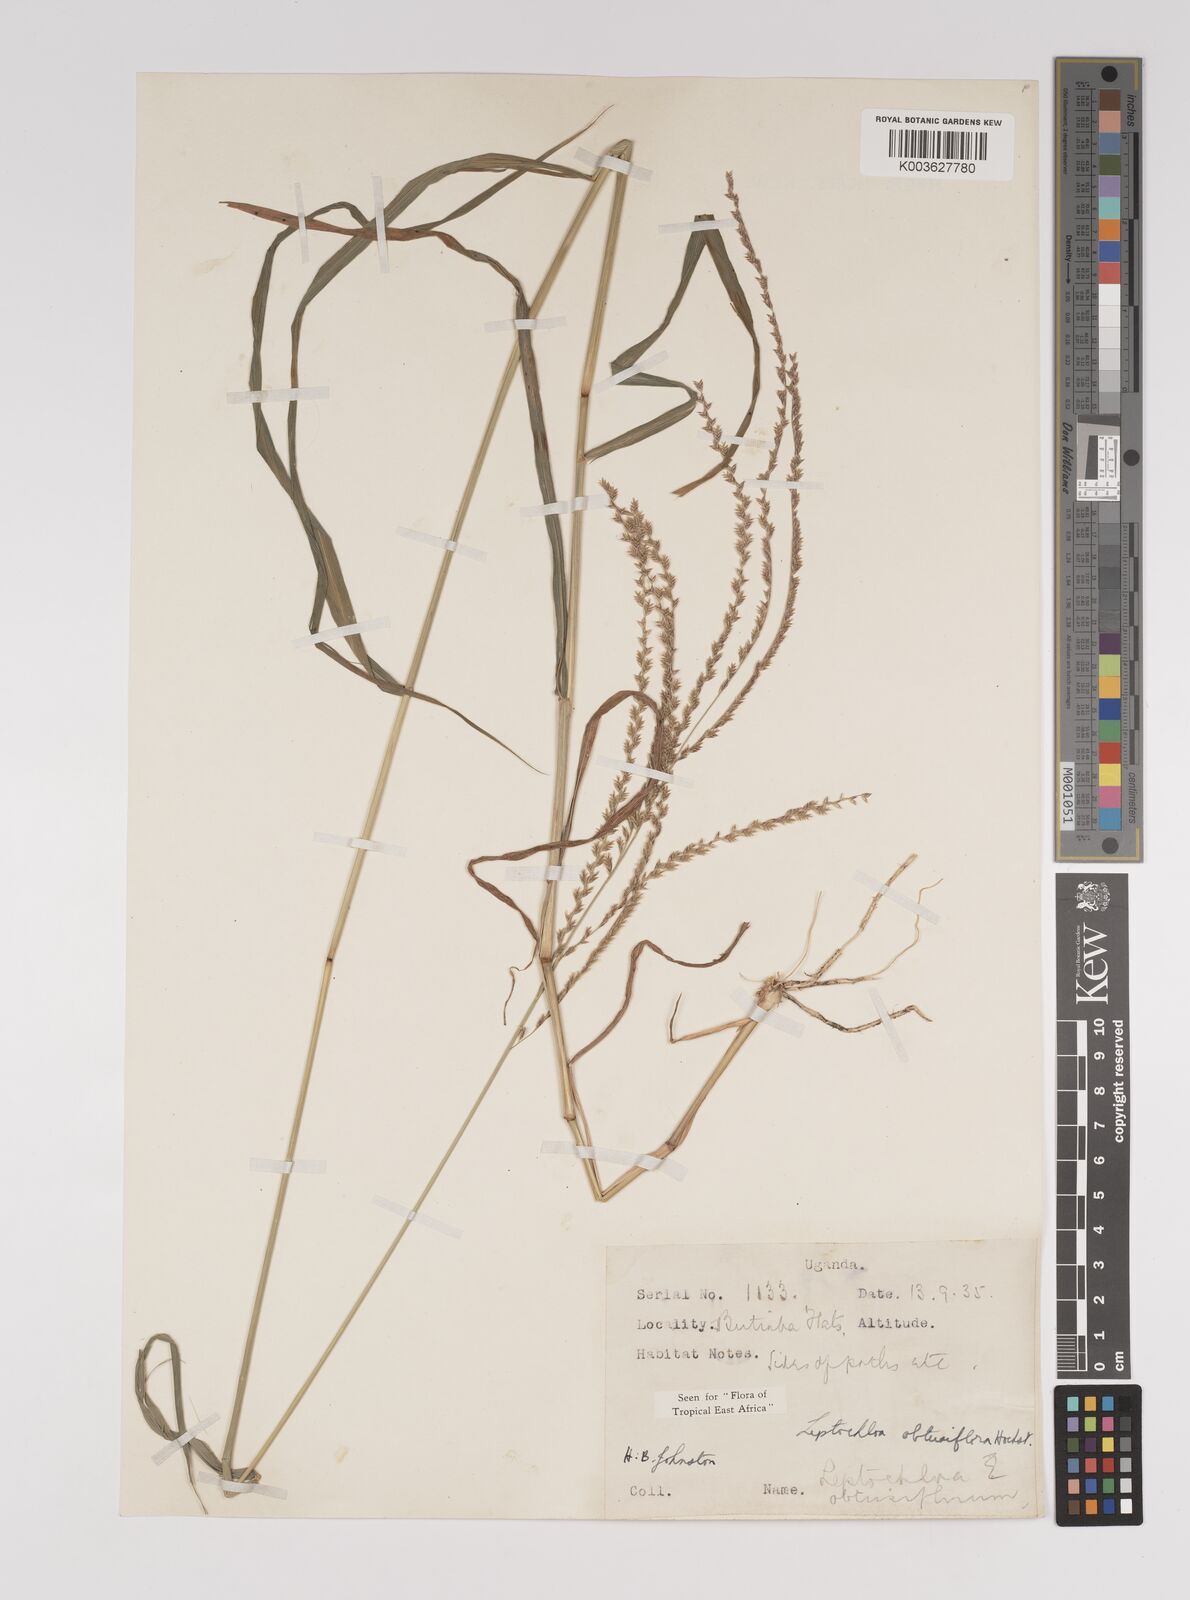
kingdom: Plantae
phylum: Tracheophyta
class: Liliopsida
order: Poales
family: Poaceae
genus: Disakisperma
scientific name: Disakisperma obtusiflorum
